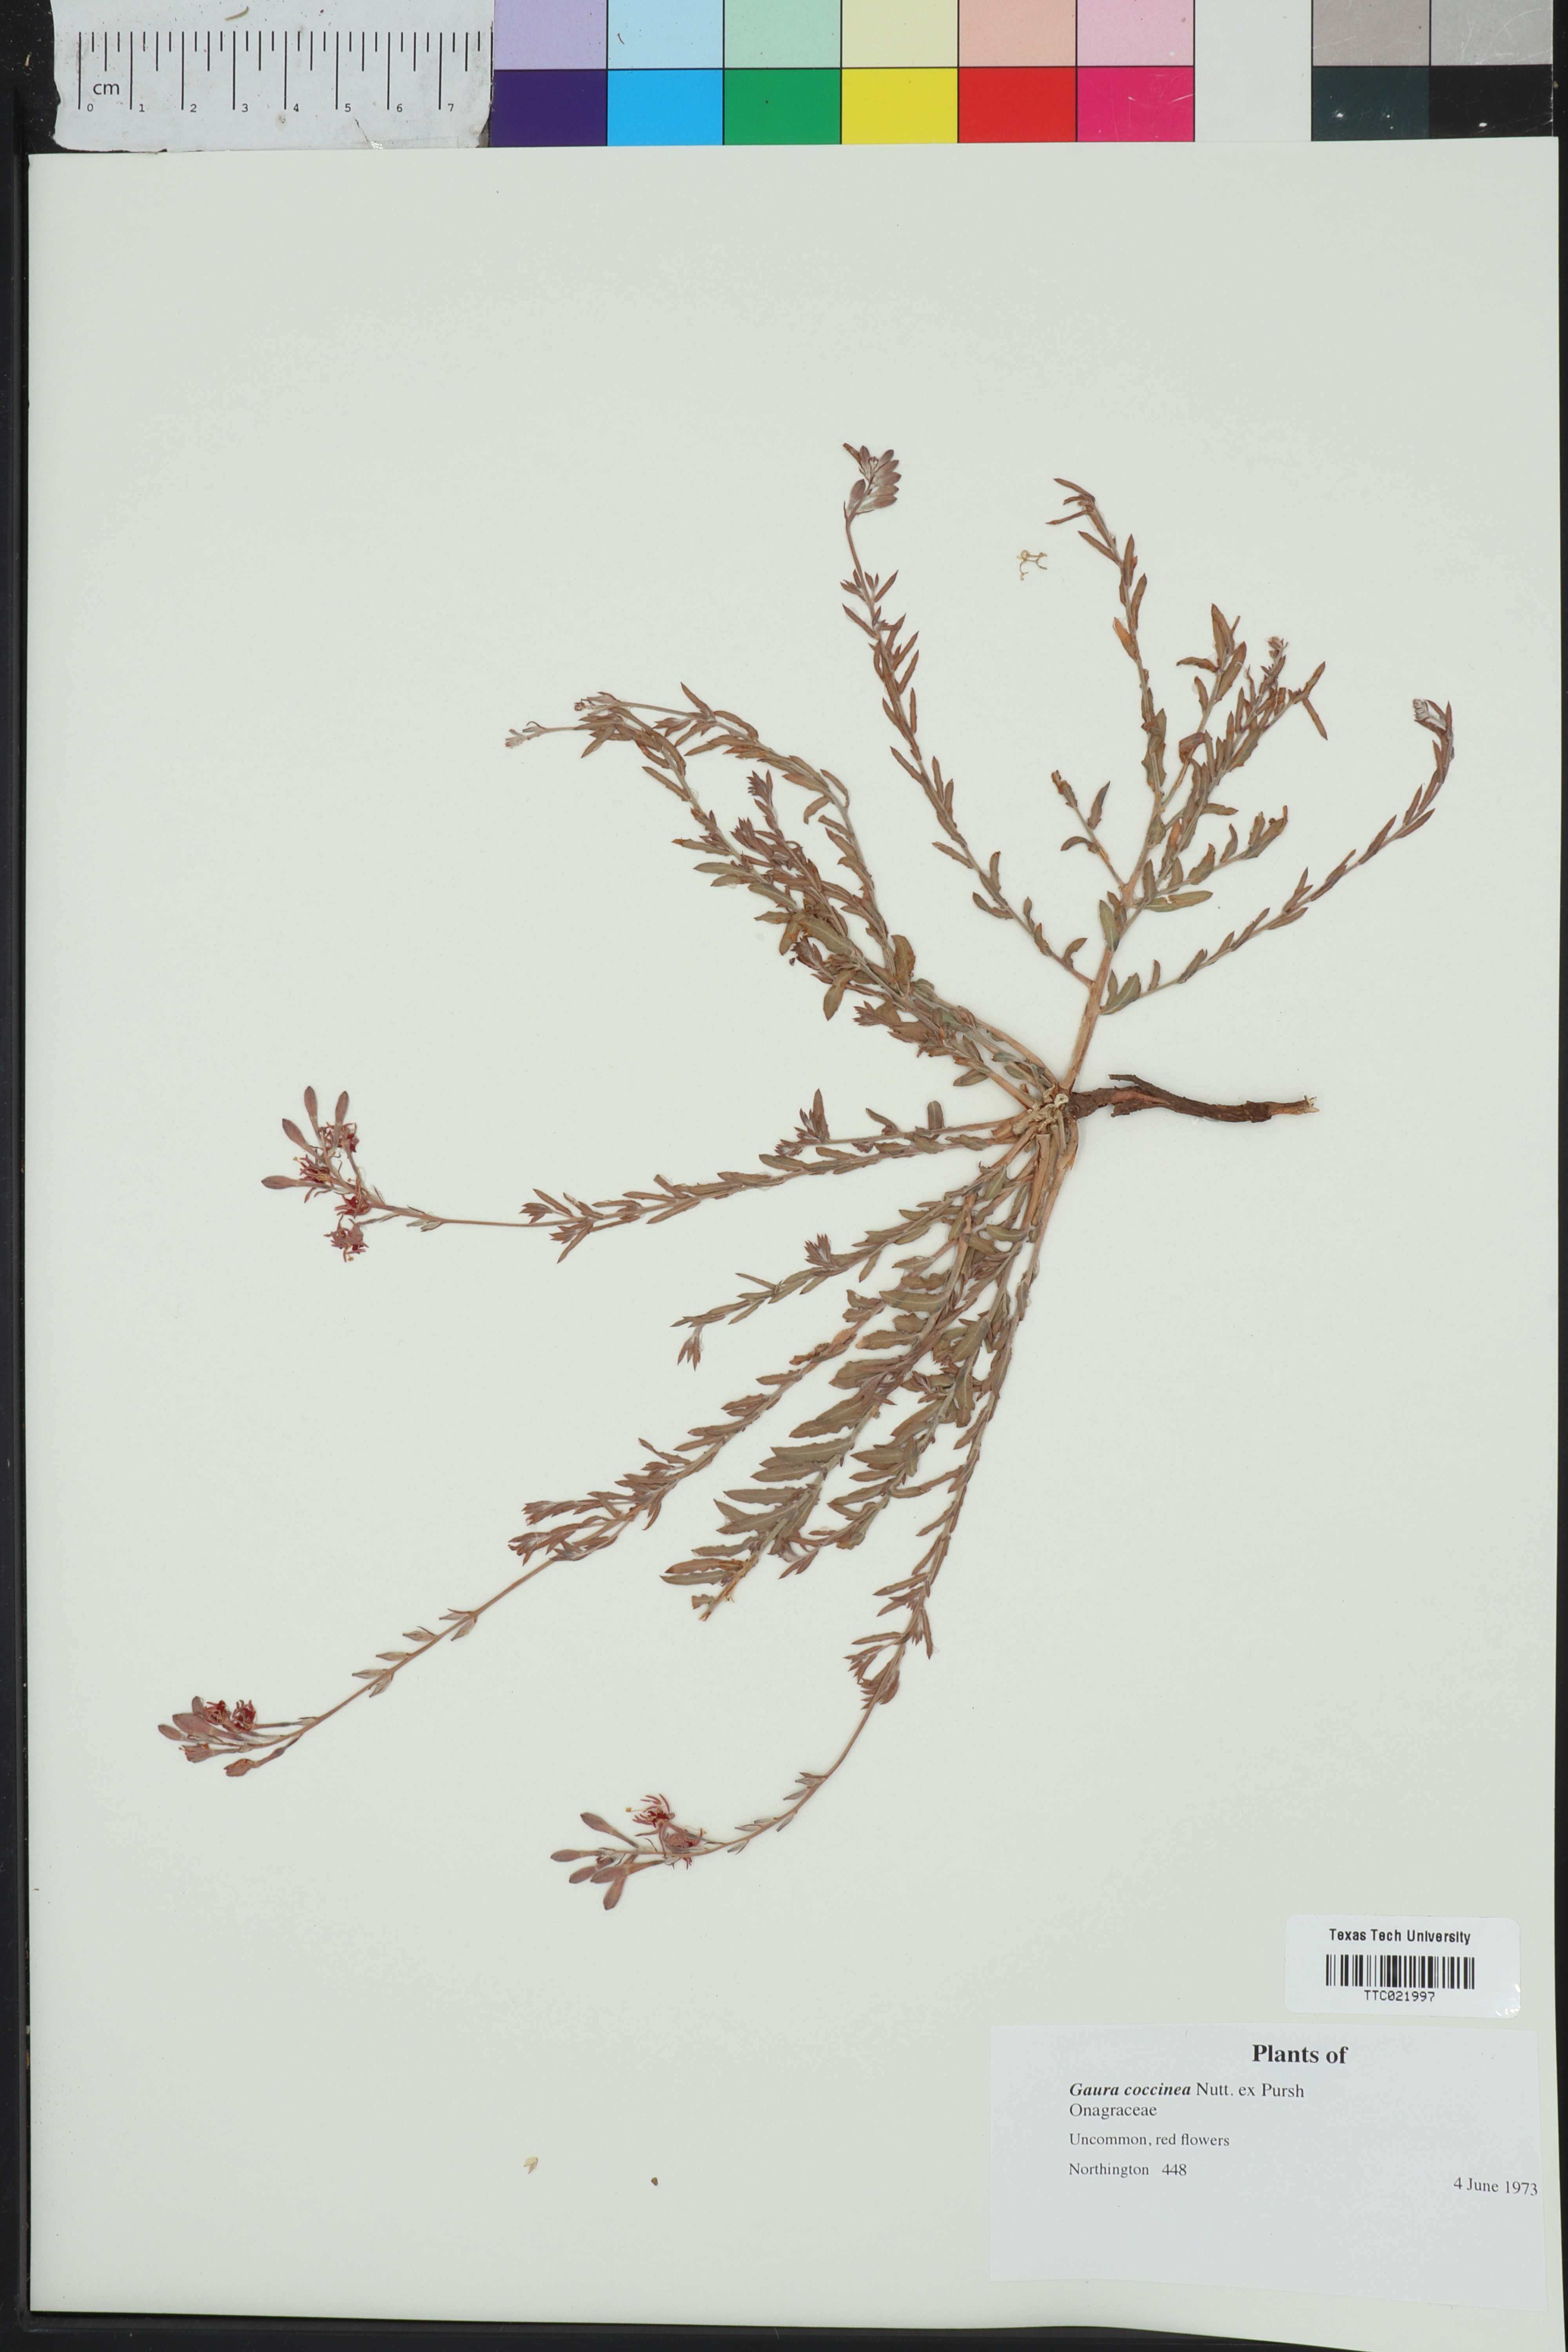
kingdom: Plantae
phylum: Tracheophyta
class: Magnoliopsida
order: Myrtales
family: Onagraceae
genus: Oenothera
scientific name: Oenothera suffrutescens
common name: Scarlet beeblossom
